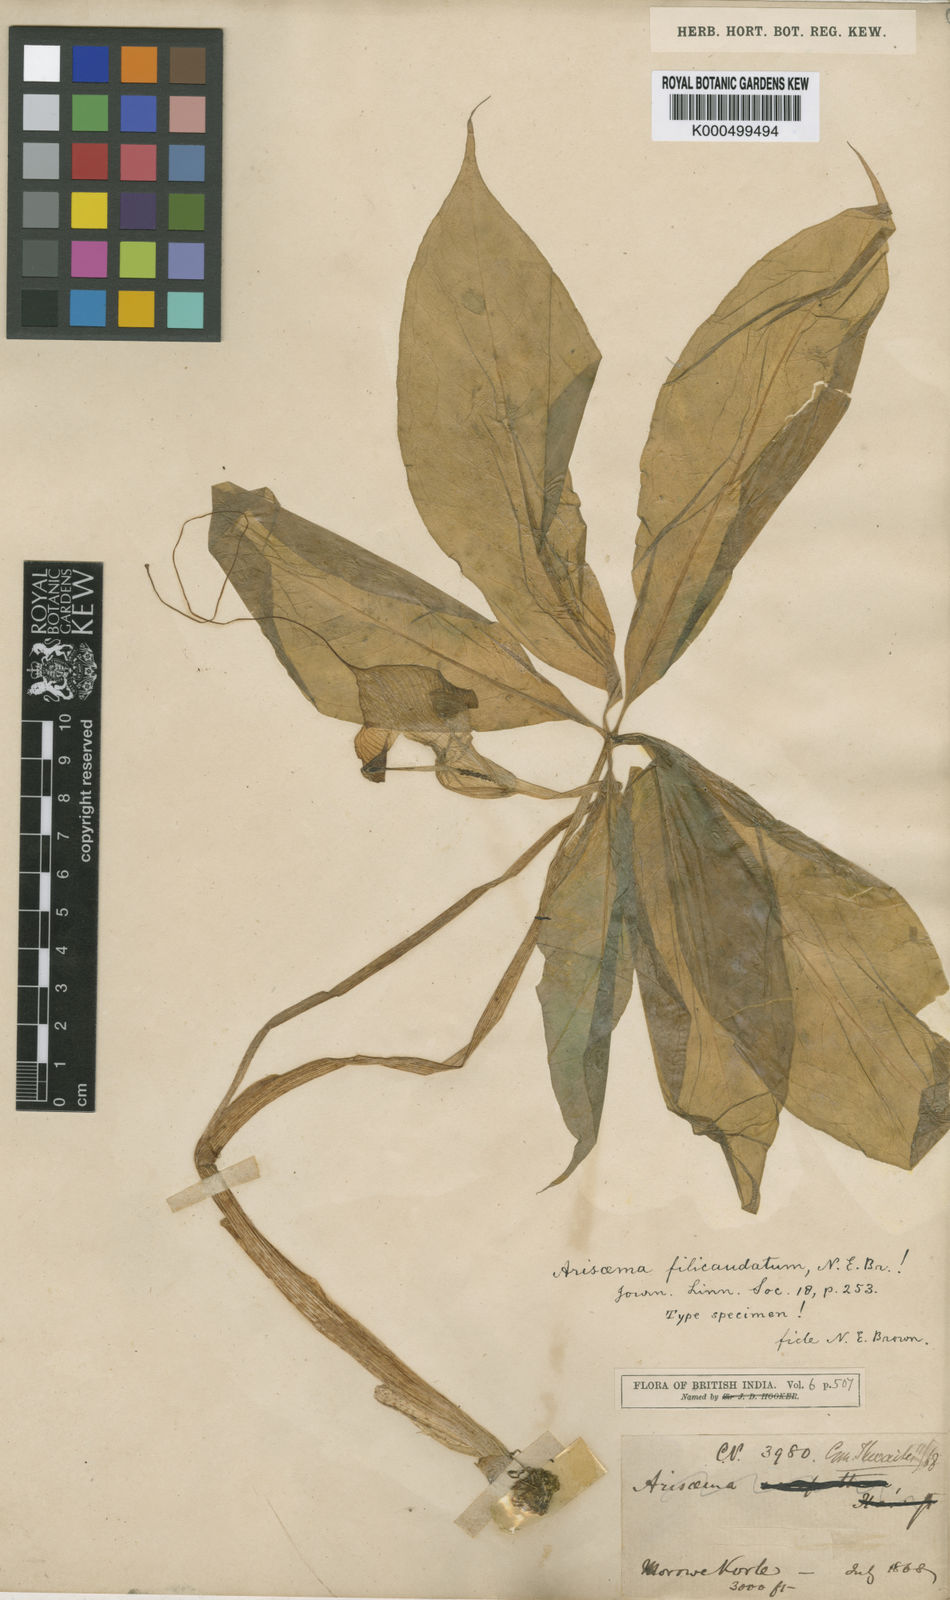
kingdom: Plantae
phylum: Tracheophyta
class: Liliopsida
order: Alismatales
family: Araceae
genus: Arisaema
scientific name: Arisaema leschenaultii
